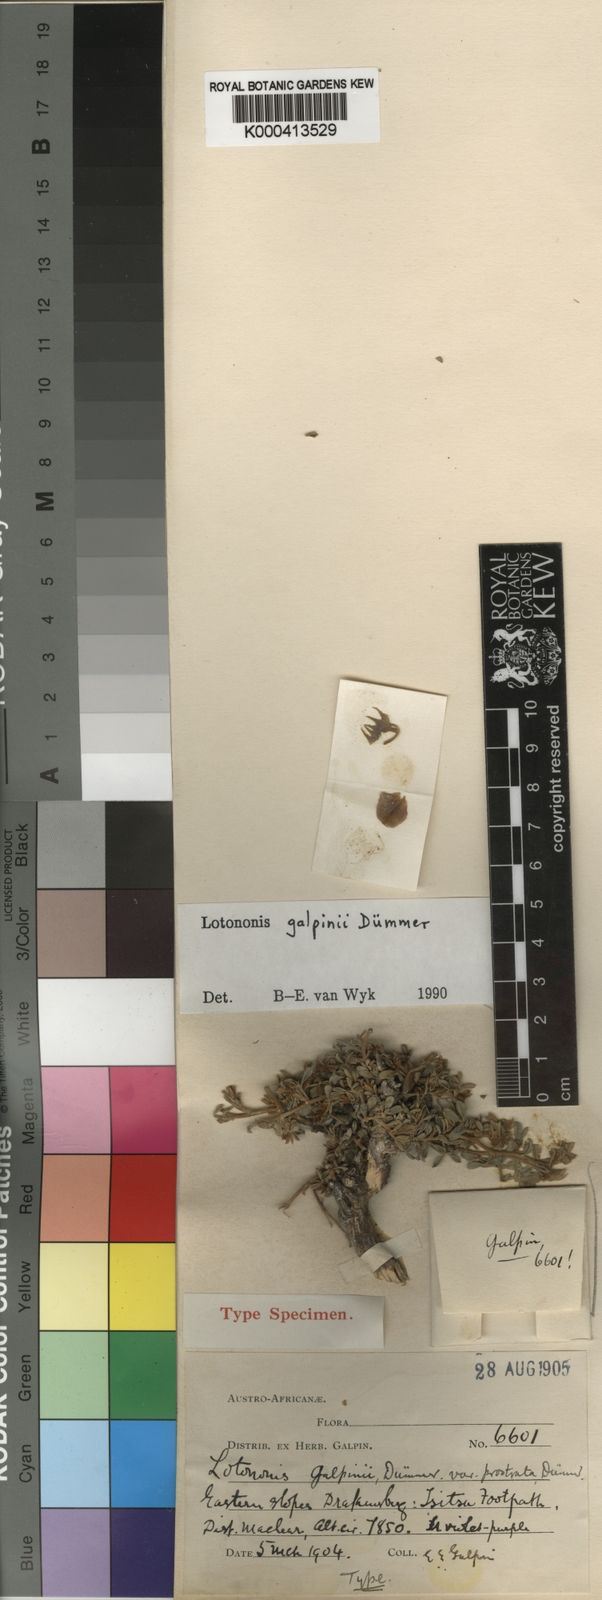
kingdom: Plantae
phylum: Tracheophyta
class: Magnoliopsida
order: Fabales
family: Fabaceae
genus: Lotononis
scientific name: Lotononis galpinii
